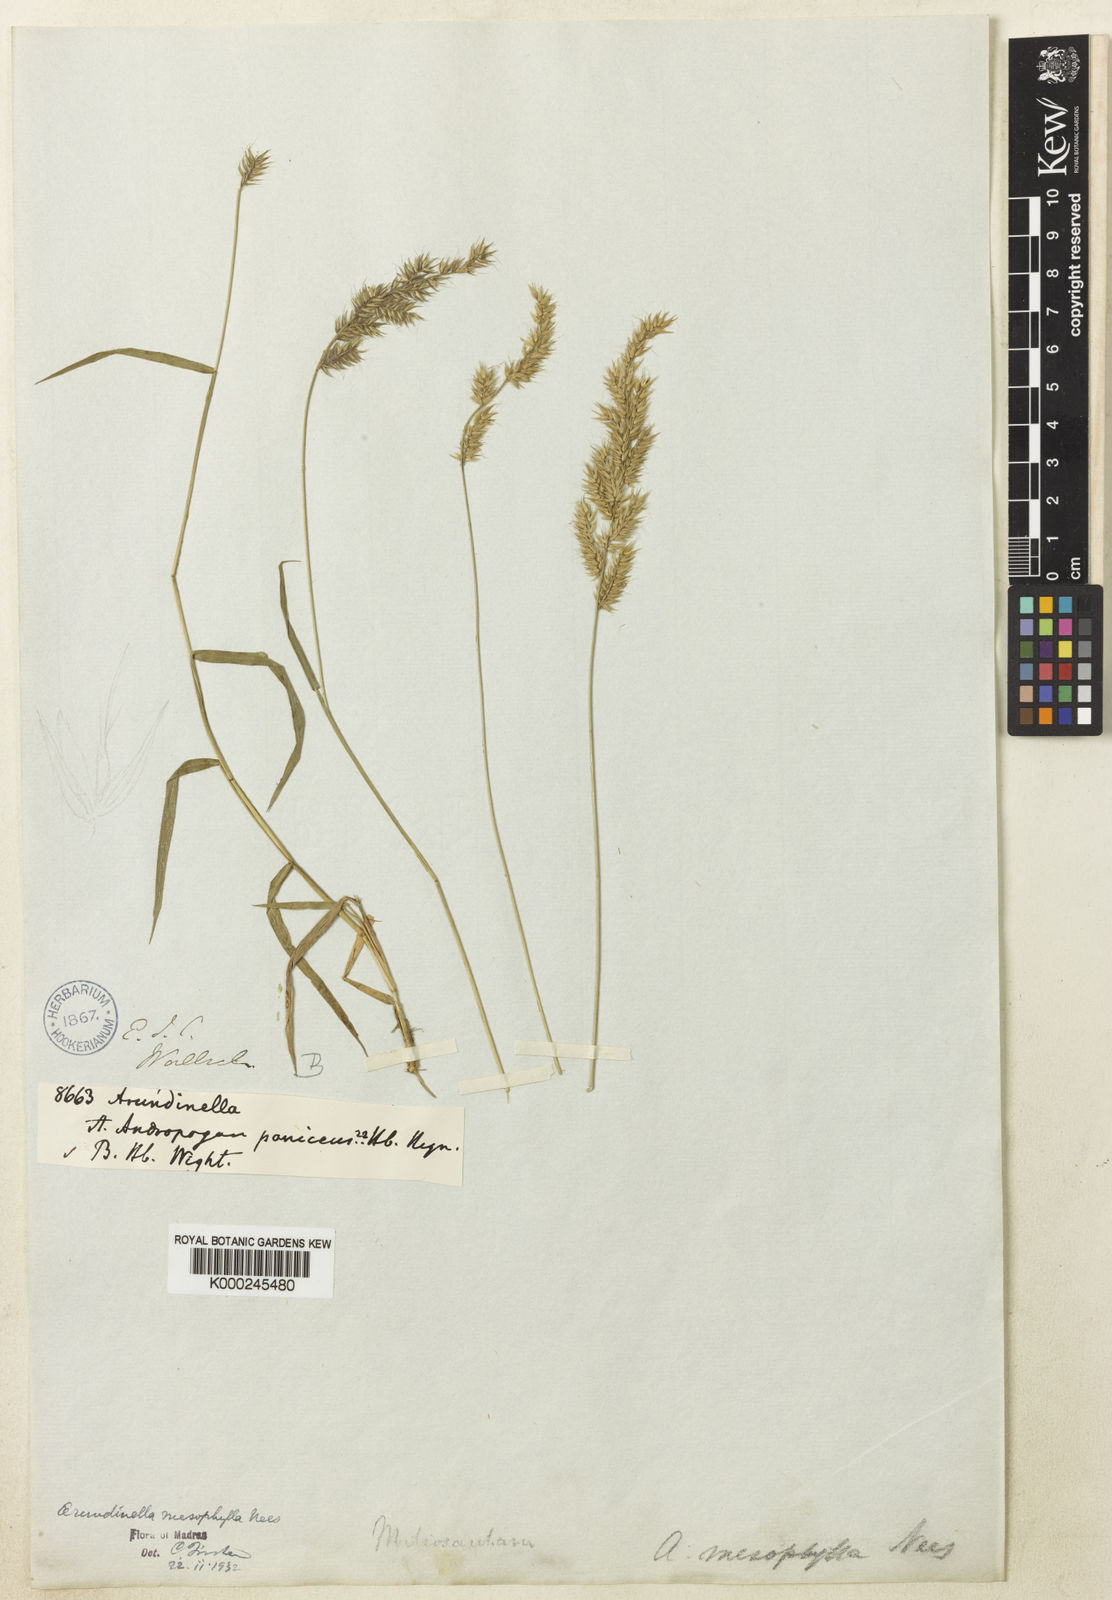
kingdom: Plantae
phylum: Tracheophyta
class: Liliopsida
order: Poales
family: Poaceae
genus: Arundinella
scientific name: Arundinella mesophylla
